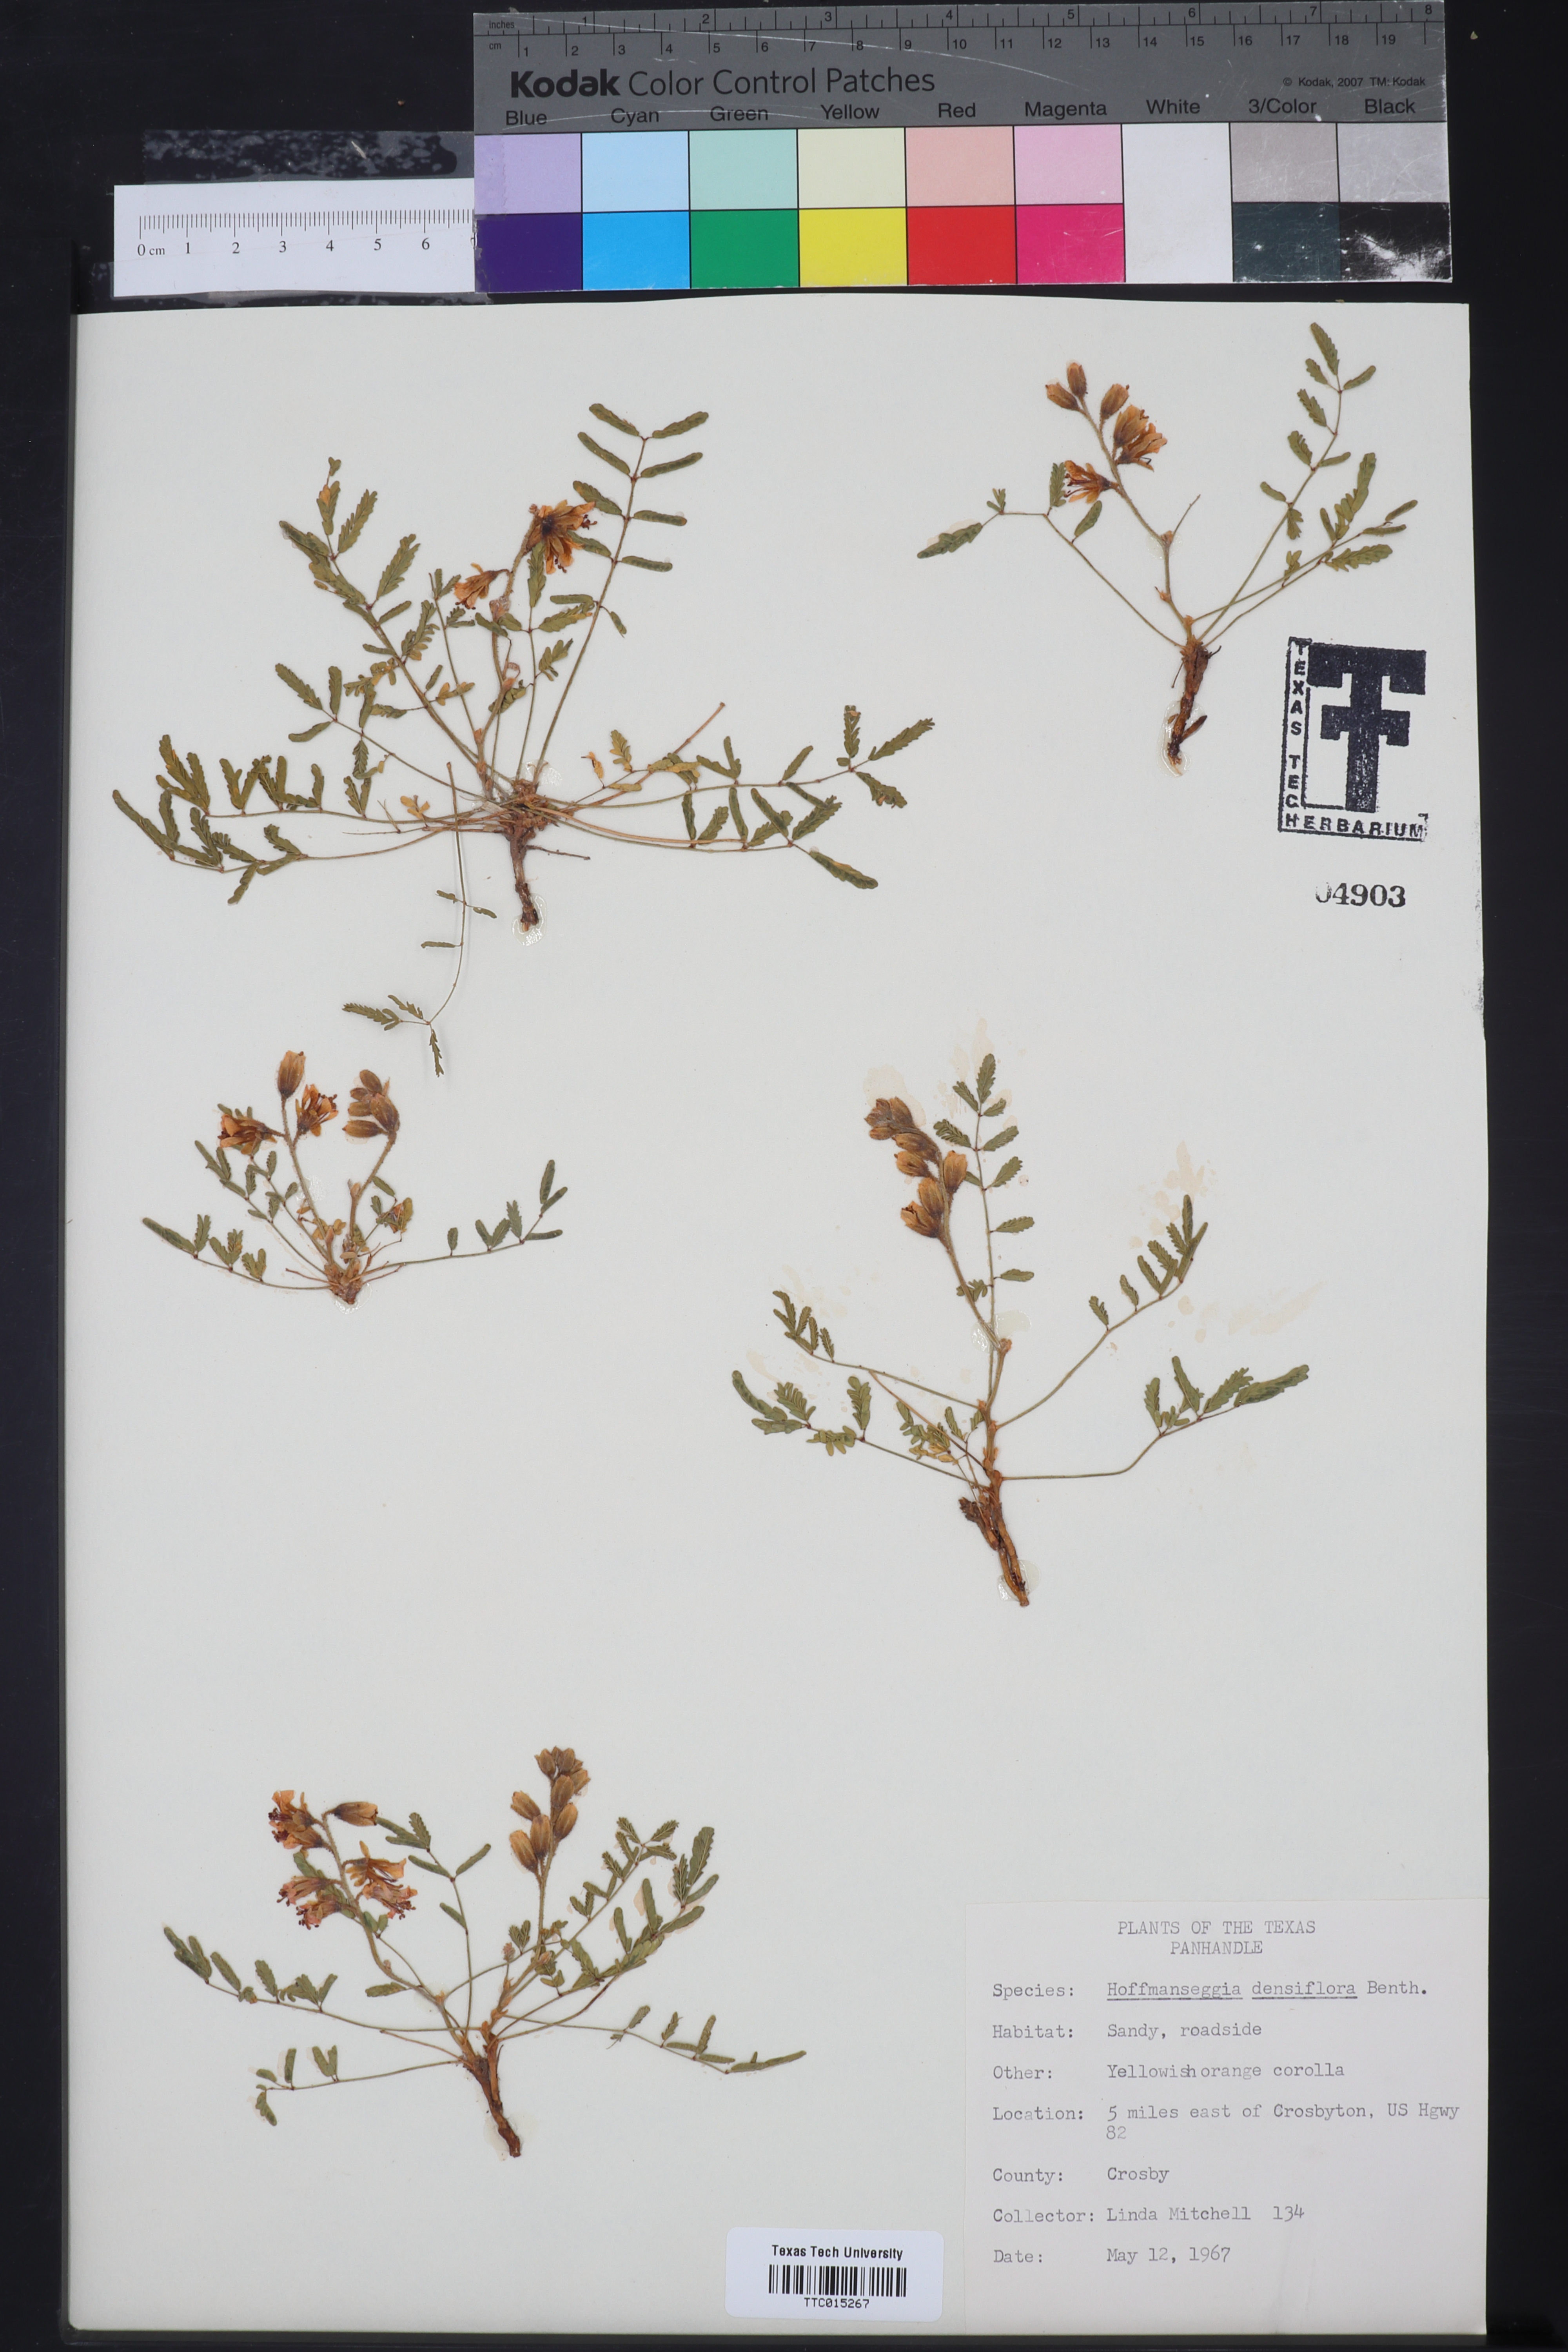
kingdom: Plantae
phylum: Tracheophyta
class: Magnoliopsida
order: Fabales
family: Fabaceae
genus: Hoffmannseggia
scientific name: Hoffmannseggia glauca
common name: Pignut
